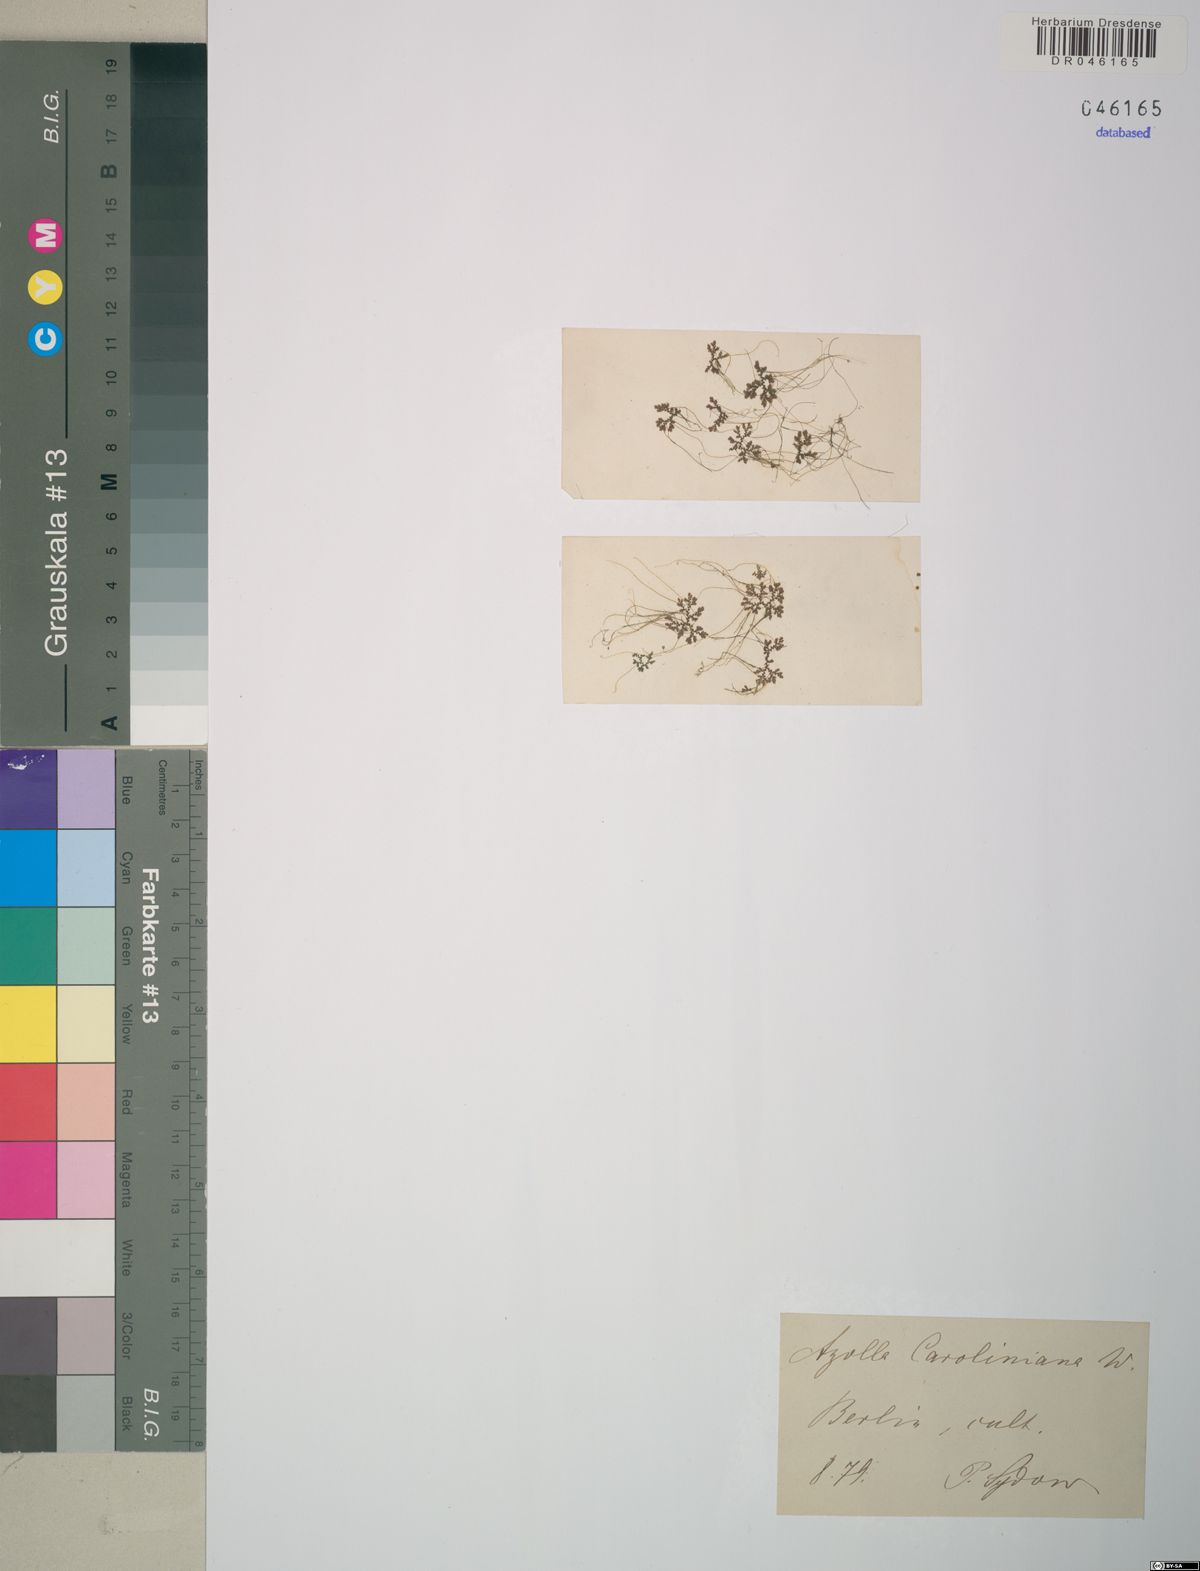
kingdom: Plantae
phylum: Tracheophyta
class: Polypodiopsida
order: Salviniales
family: Salviniaceae
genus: Azolla
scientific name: Azolla caroliniana
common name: Carolina mosquitofern
